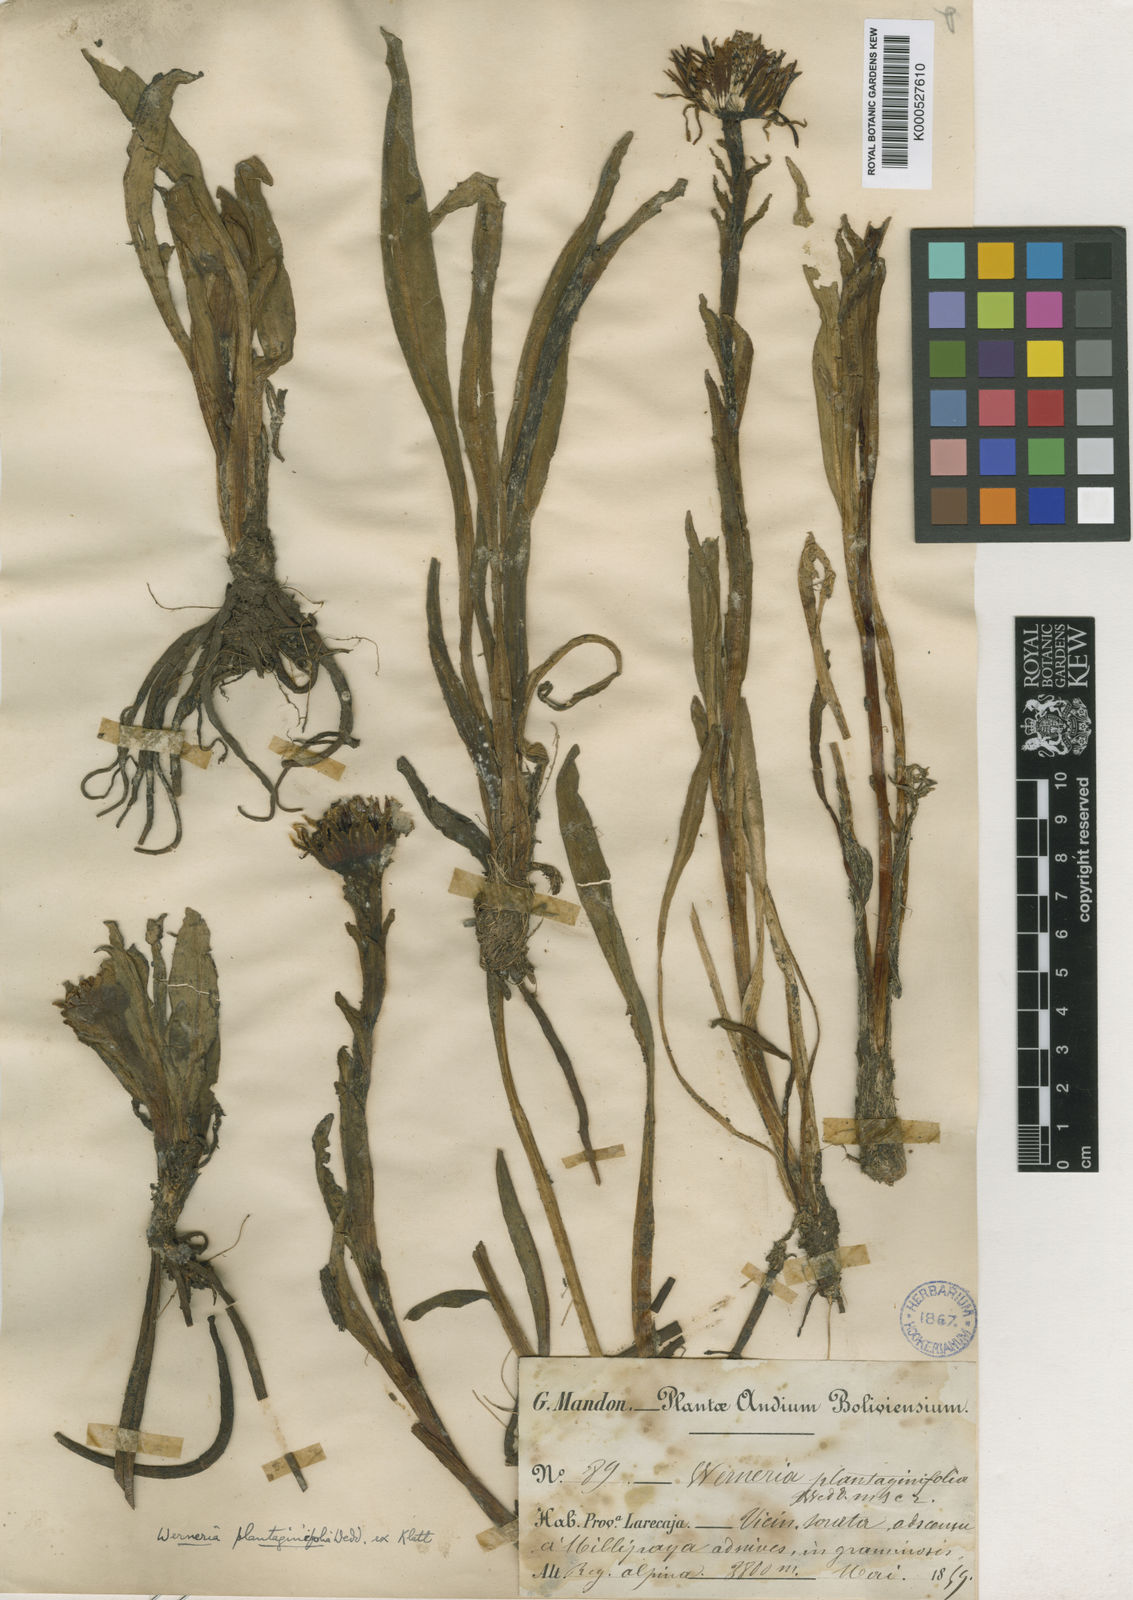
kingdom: Plantae
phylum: Tracheophyta
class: Magnoliopsida
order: Asterales
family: Asteraceae
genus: Werneria
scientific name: Werneria
